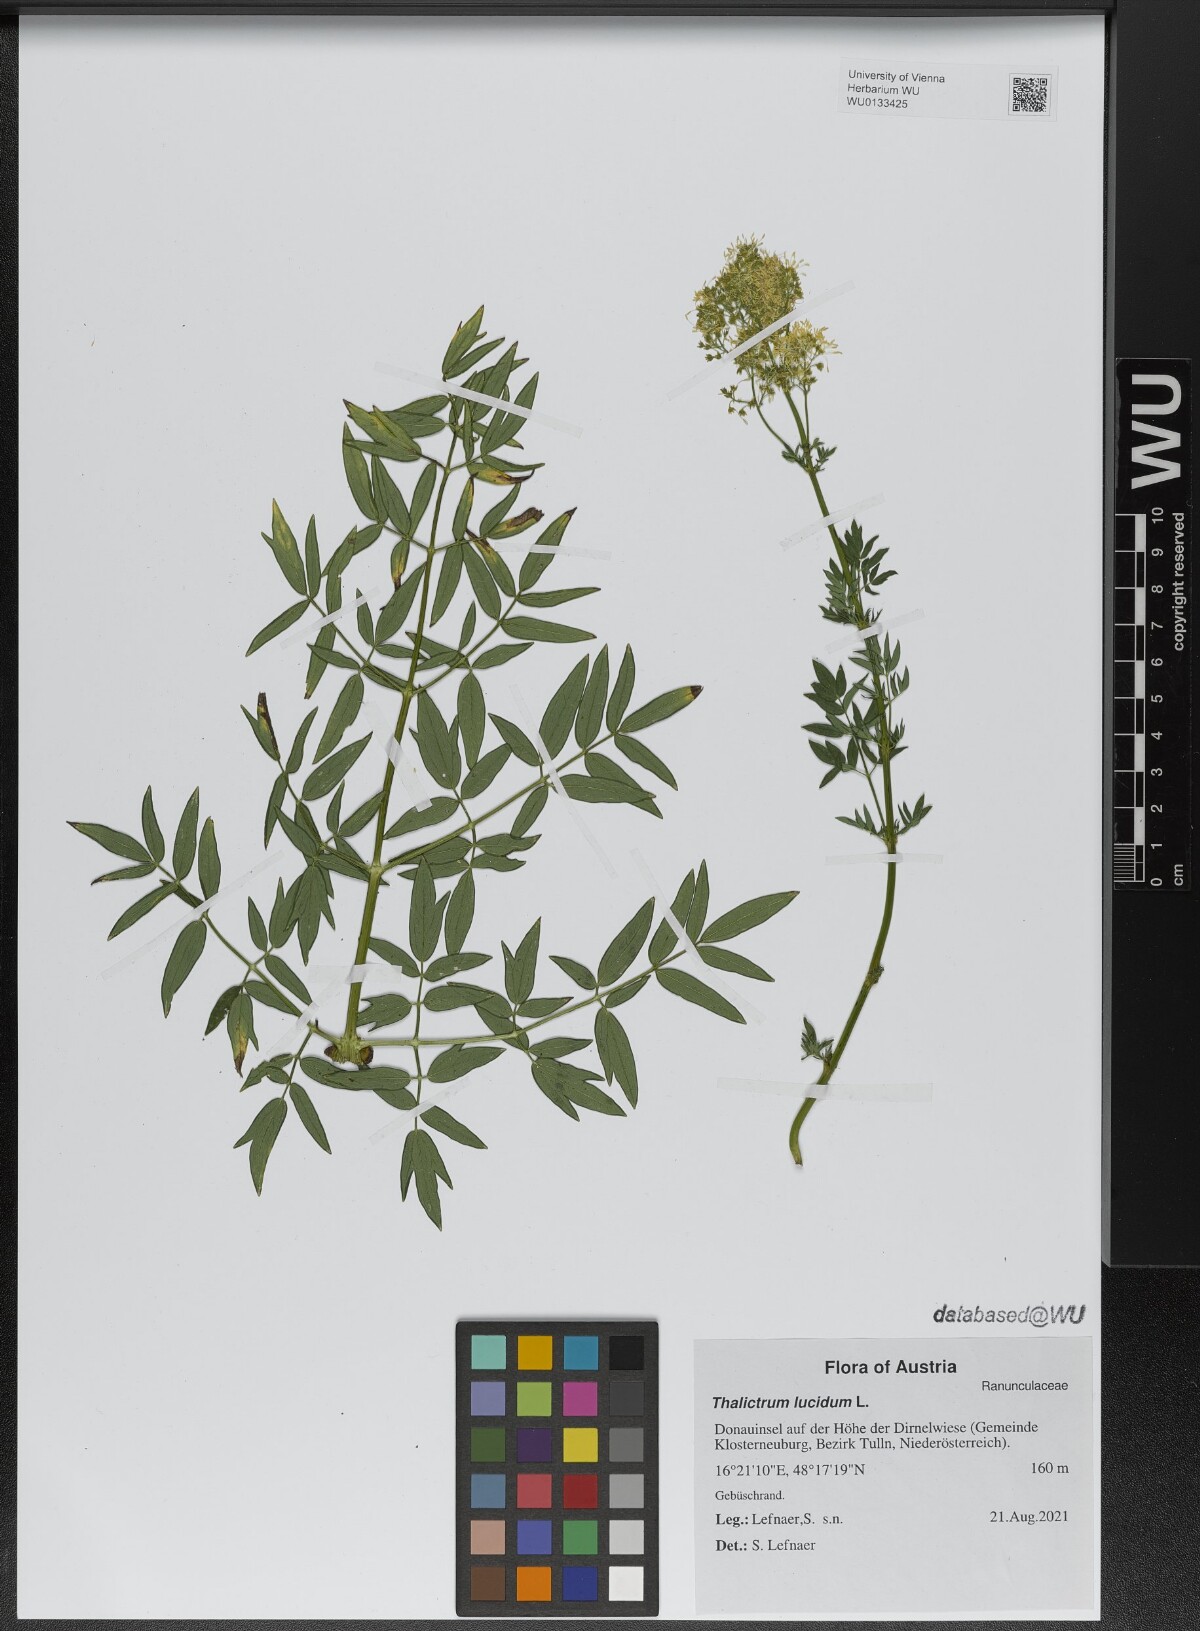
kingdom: Plantae
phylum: Tracheophyta
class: Magnoliopsida
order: Ranunculales
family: Ranunculaceae
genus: Thalictrum
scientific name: Thalictrum lucidum
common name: Shining meadow-rue
